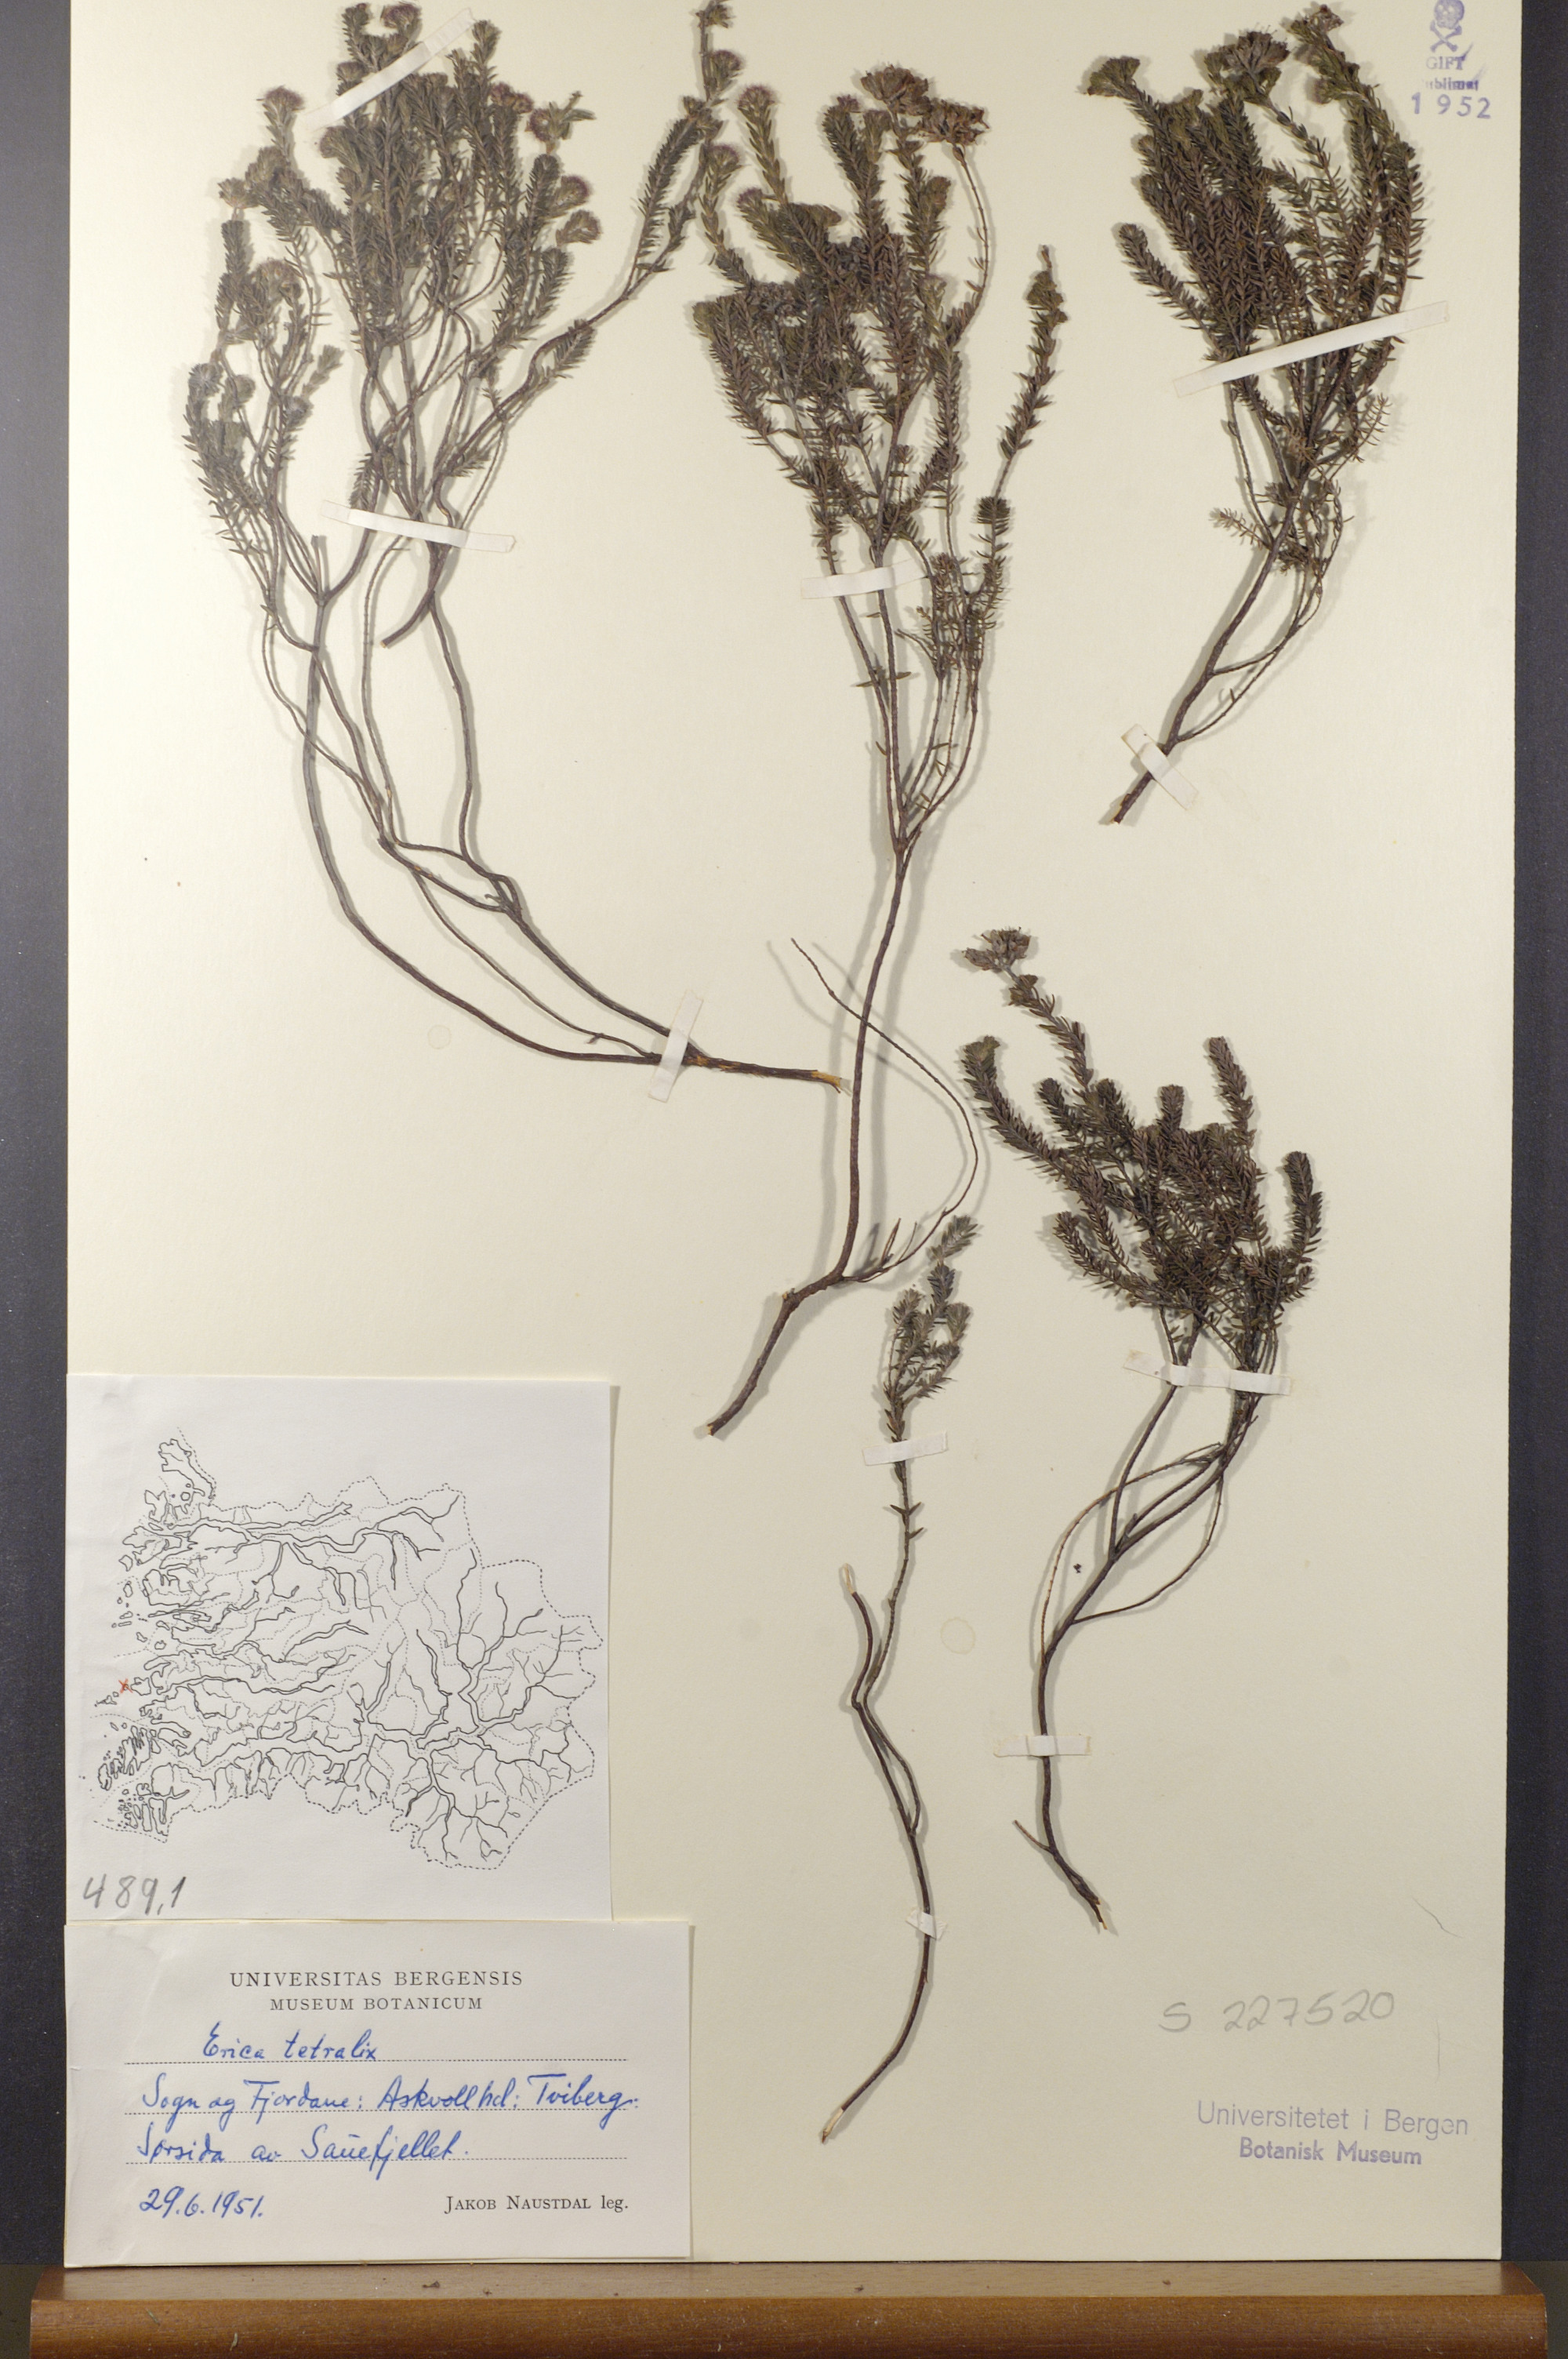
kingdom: Plantae
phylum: Tracheophyta
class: Magnoliopsida
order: Ericales
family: Ericaceae
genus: Erica
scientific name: Erica tetralix
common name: Cross-leaved heath
